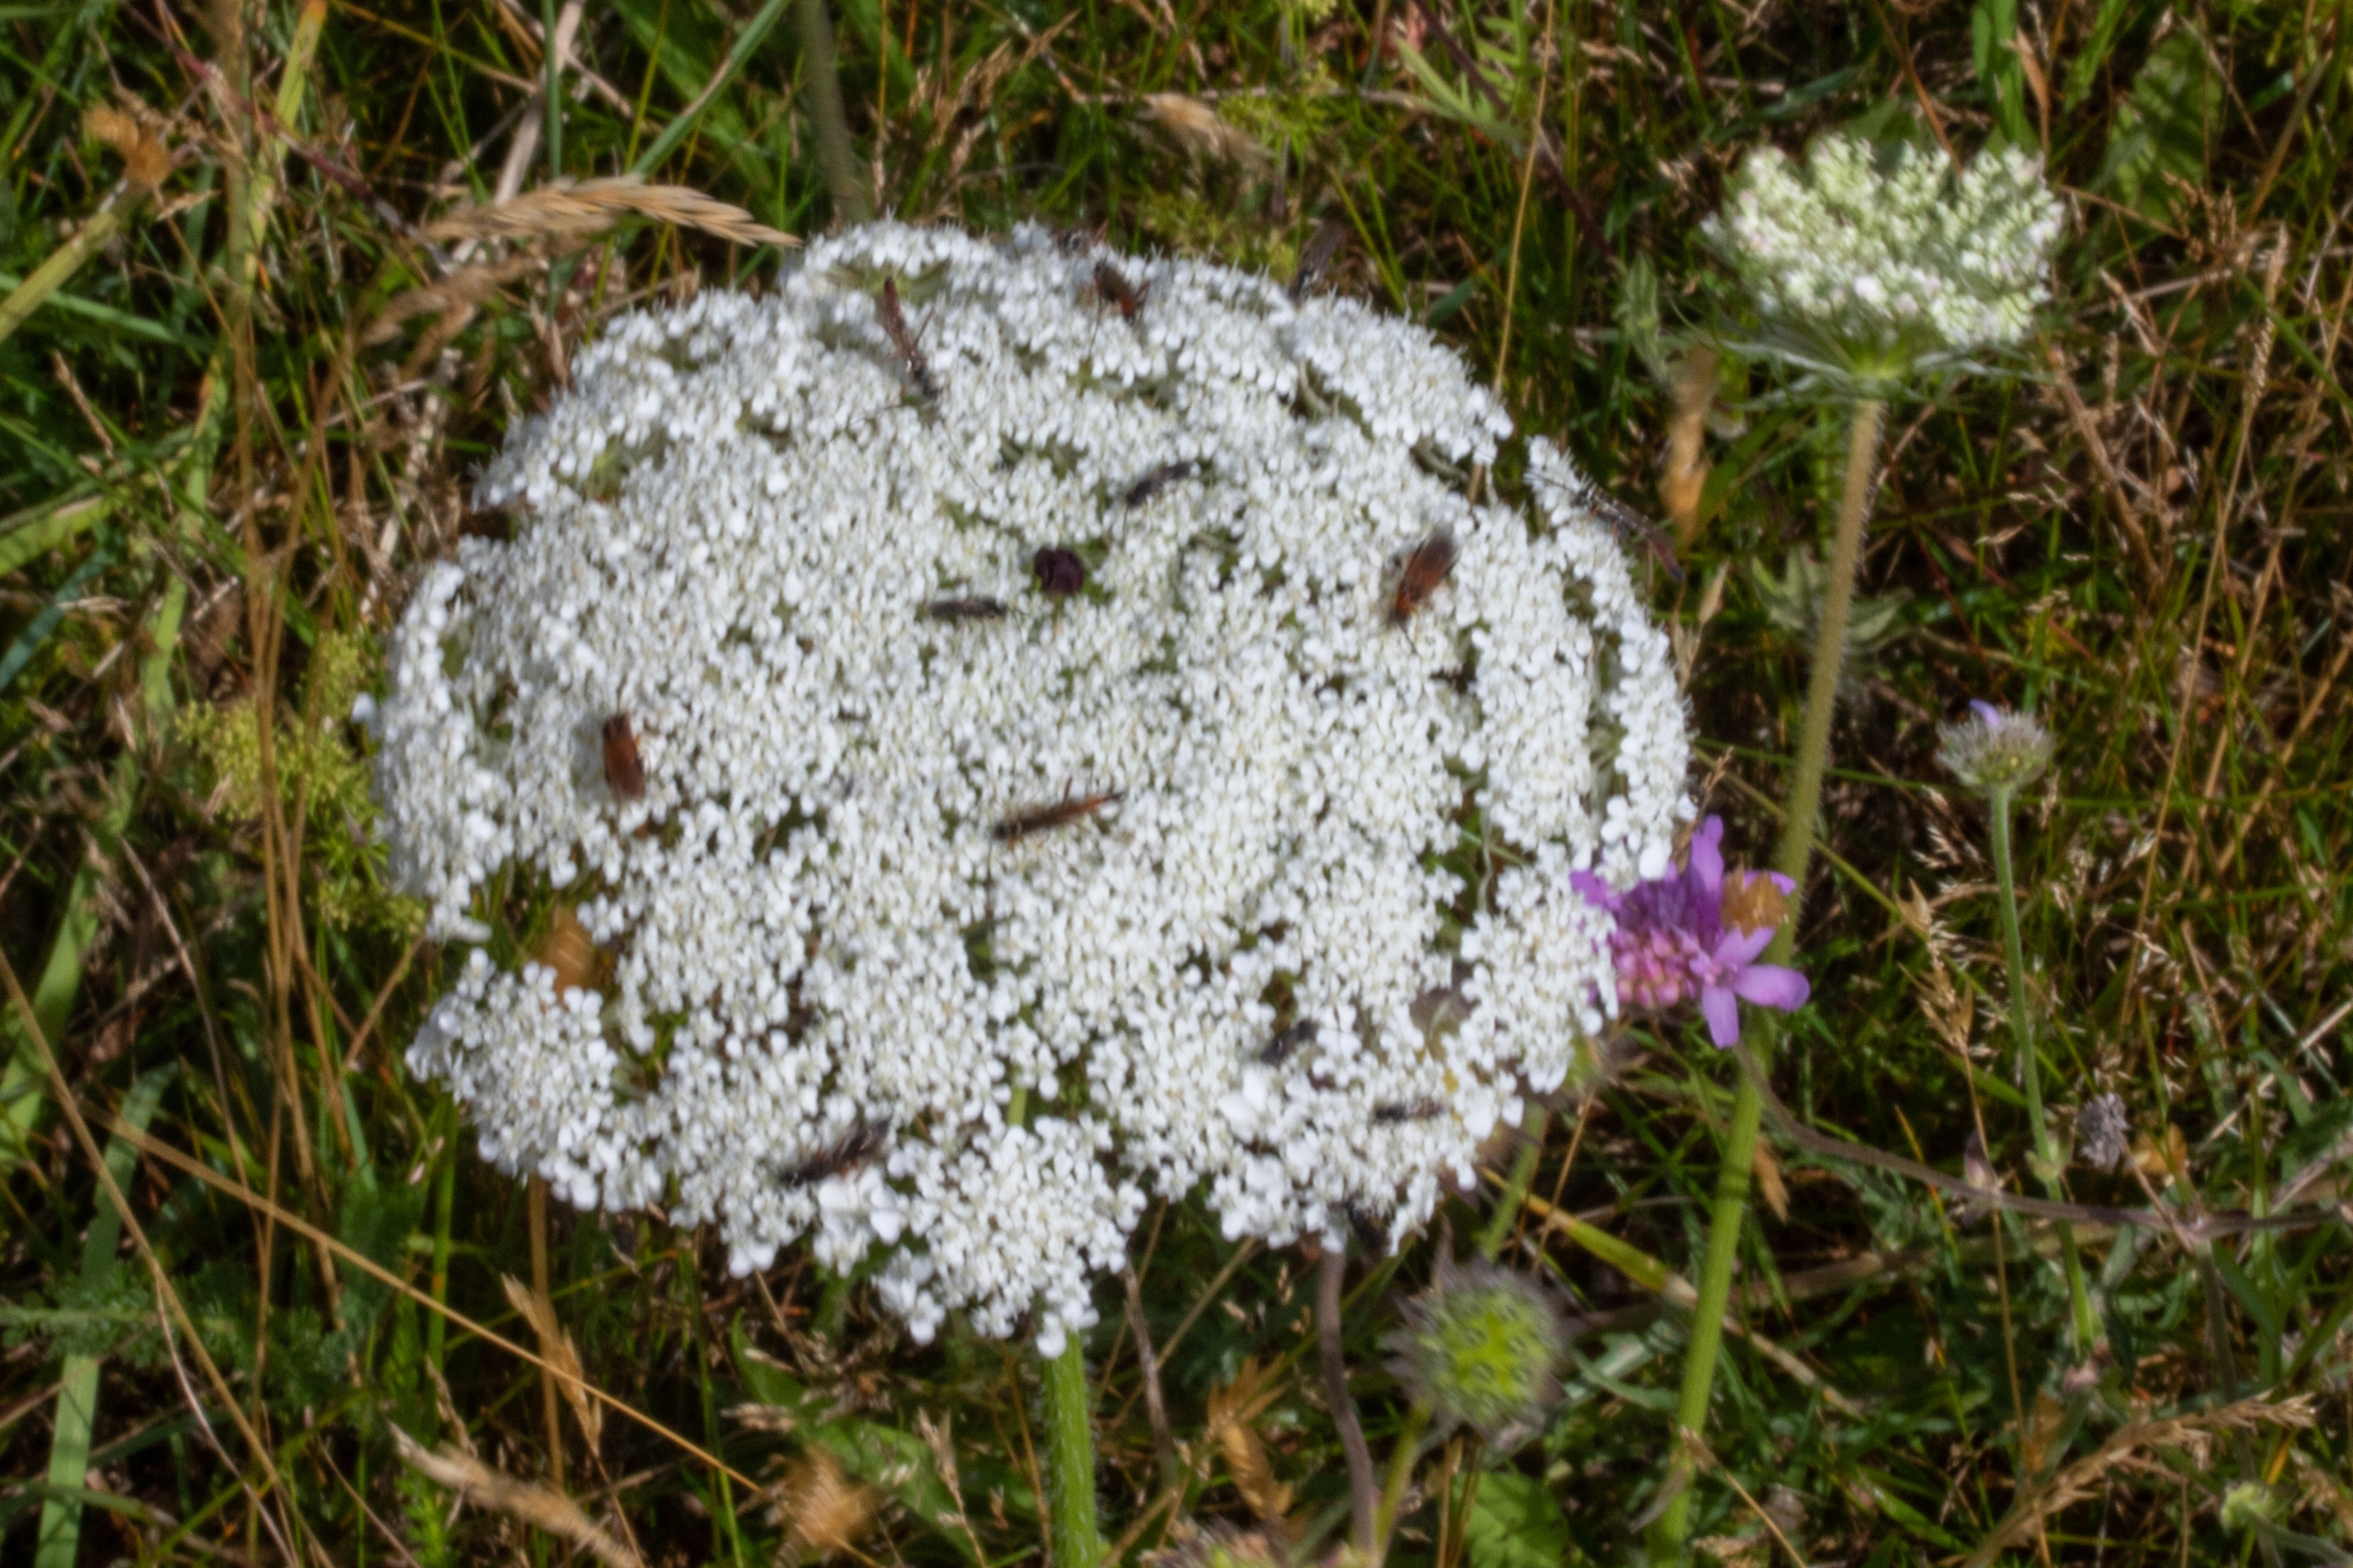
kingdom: Plantae
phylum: Tracheophyta
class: Magnoliopsida
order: Apiales
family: Apiaceae
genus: Daucus
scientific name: Daucus carota
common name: Gulerod
